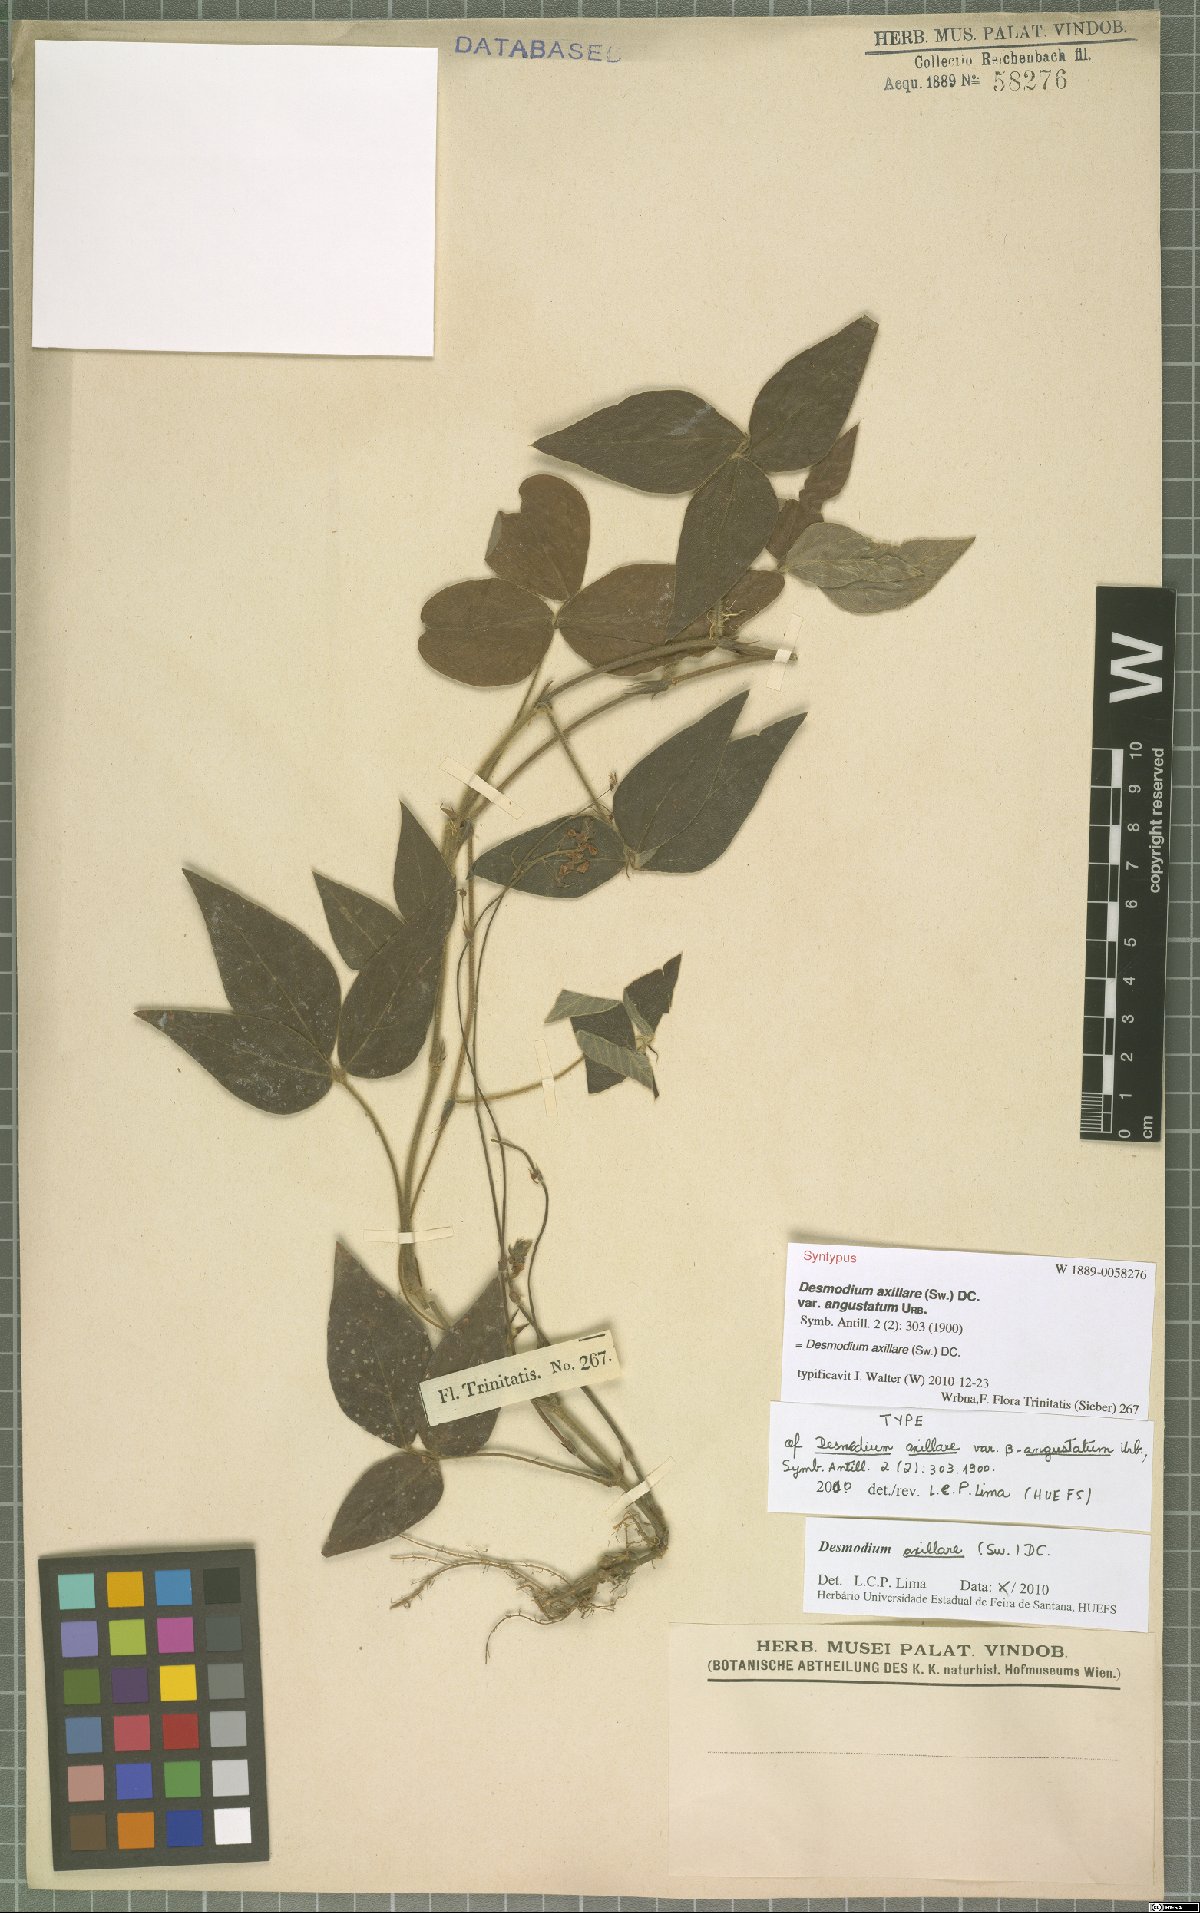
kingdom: Plantae
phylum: Tracheophyta
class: Magnoliopsida
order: Fabales
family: Fabaceae
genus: Desmodium
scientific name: Desmodium axillare
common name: Wire with
